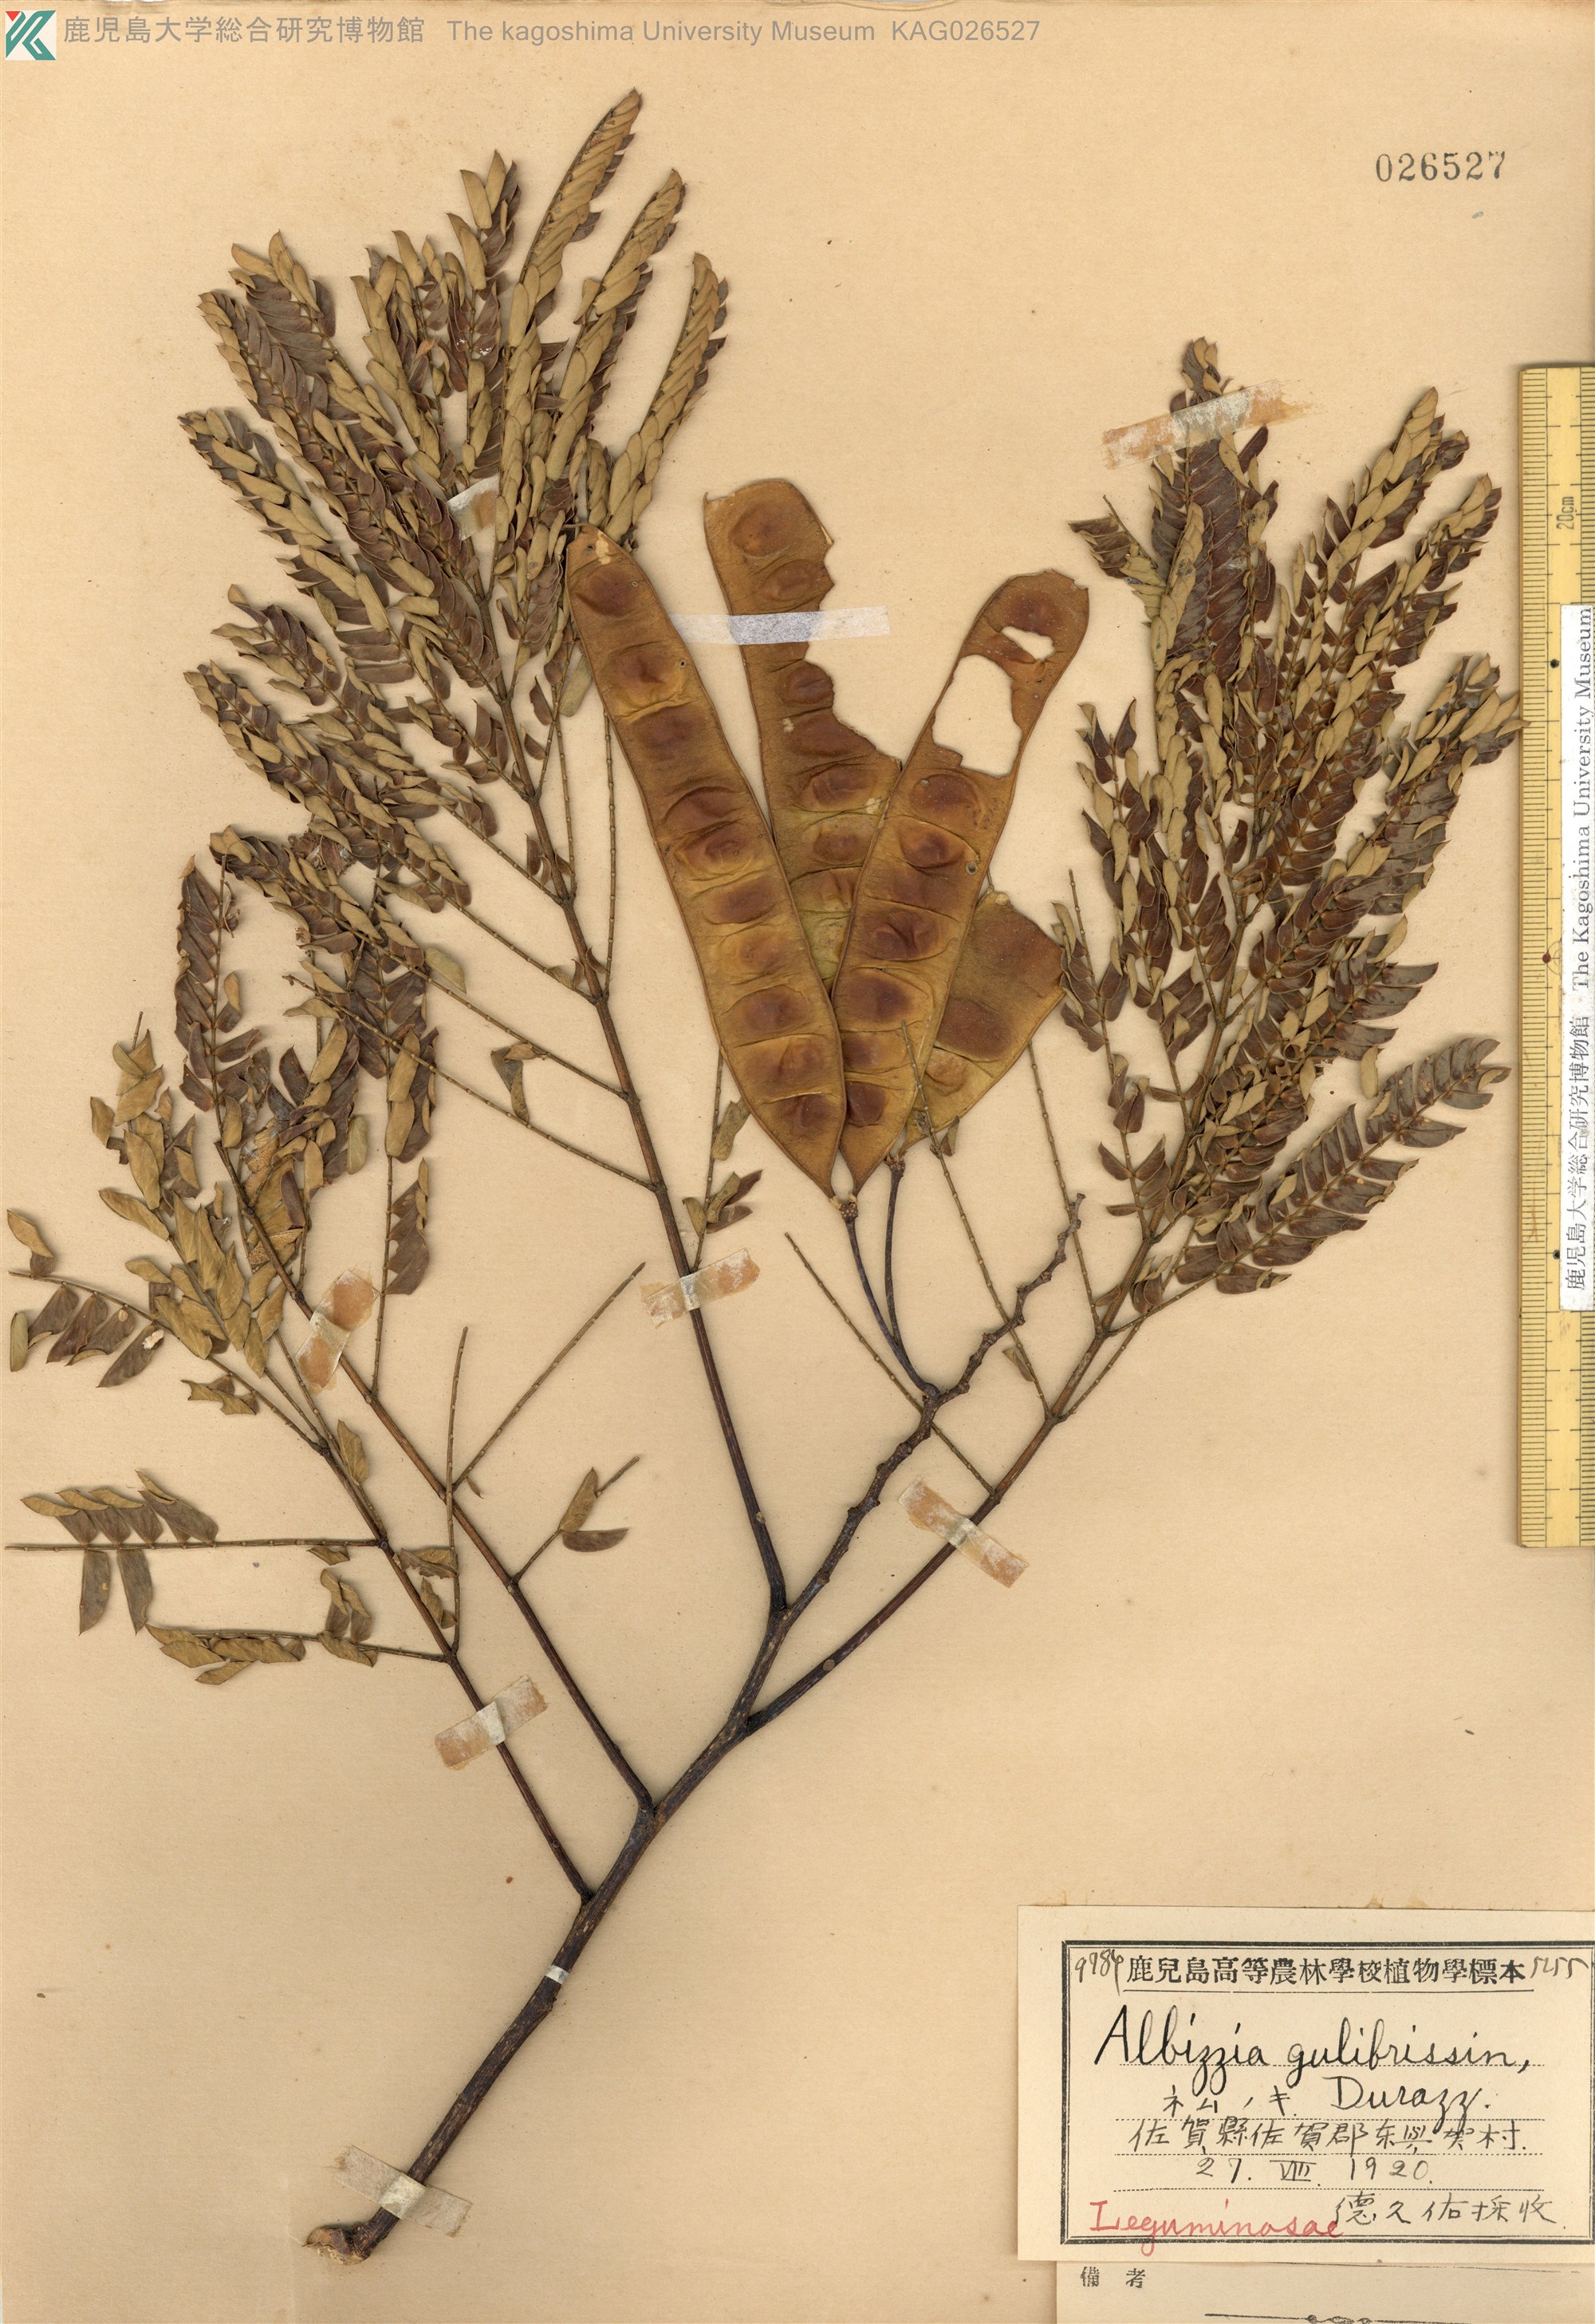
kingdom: Plantae
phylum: Tracheophyta
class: Magnoliopsida
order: Fabales
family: Fabaceae
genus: Albizia
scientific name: Albizia julibrissin
